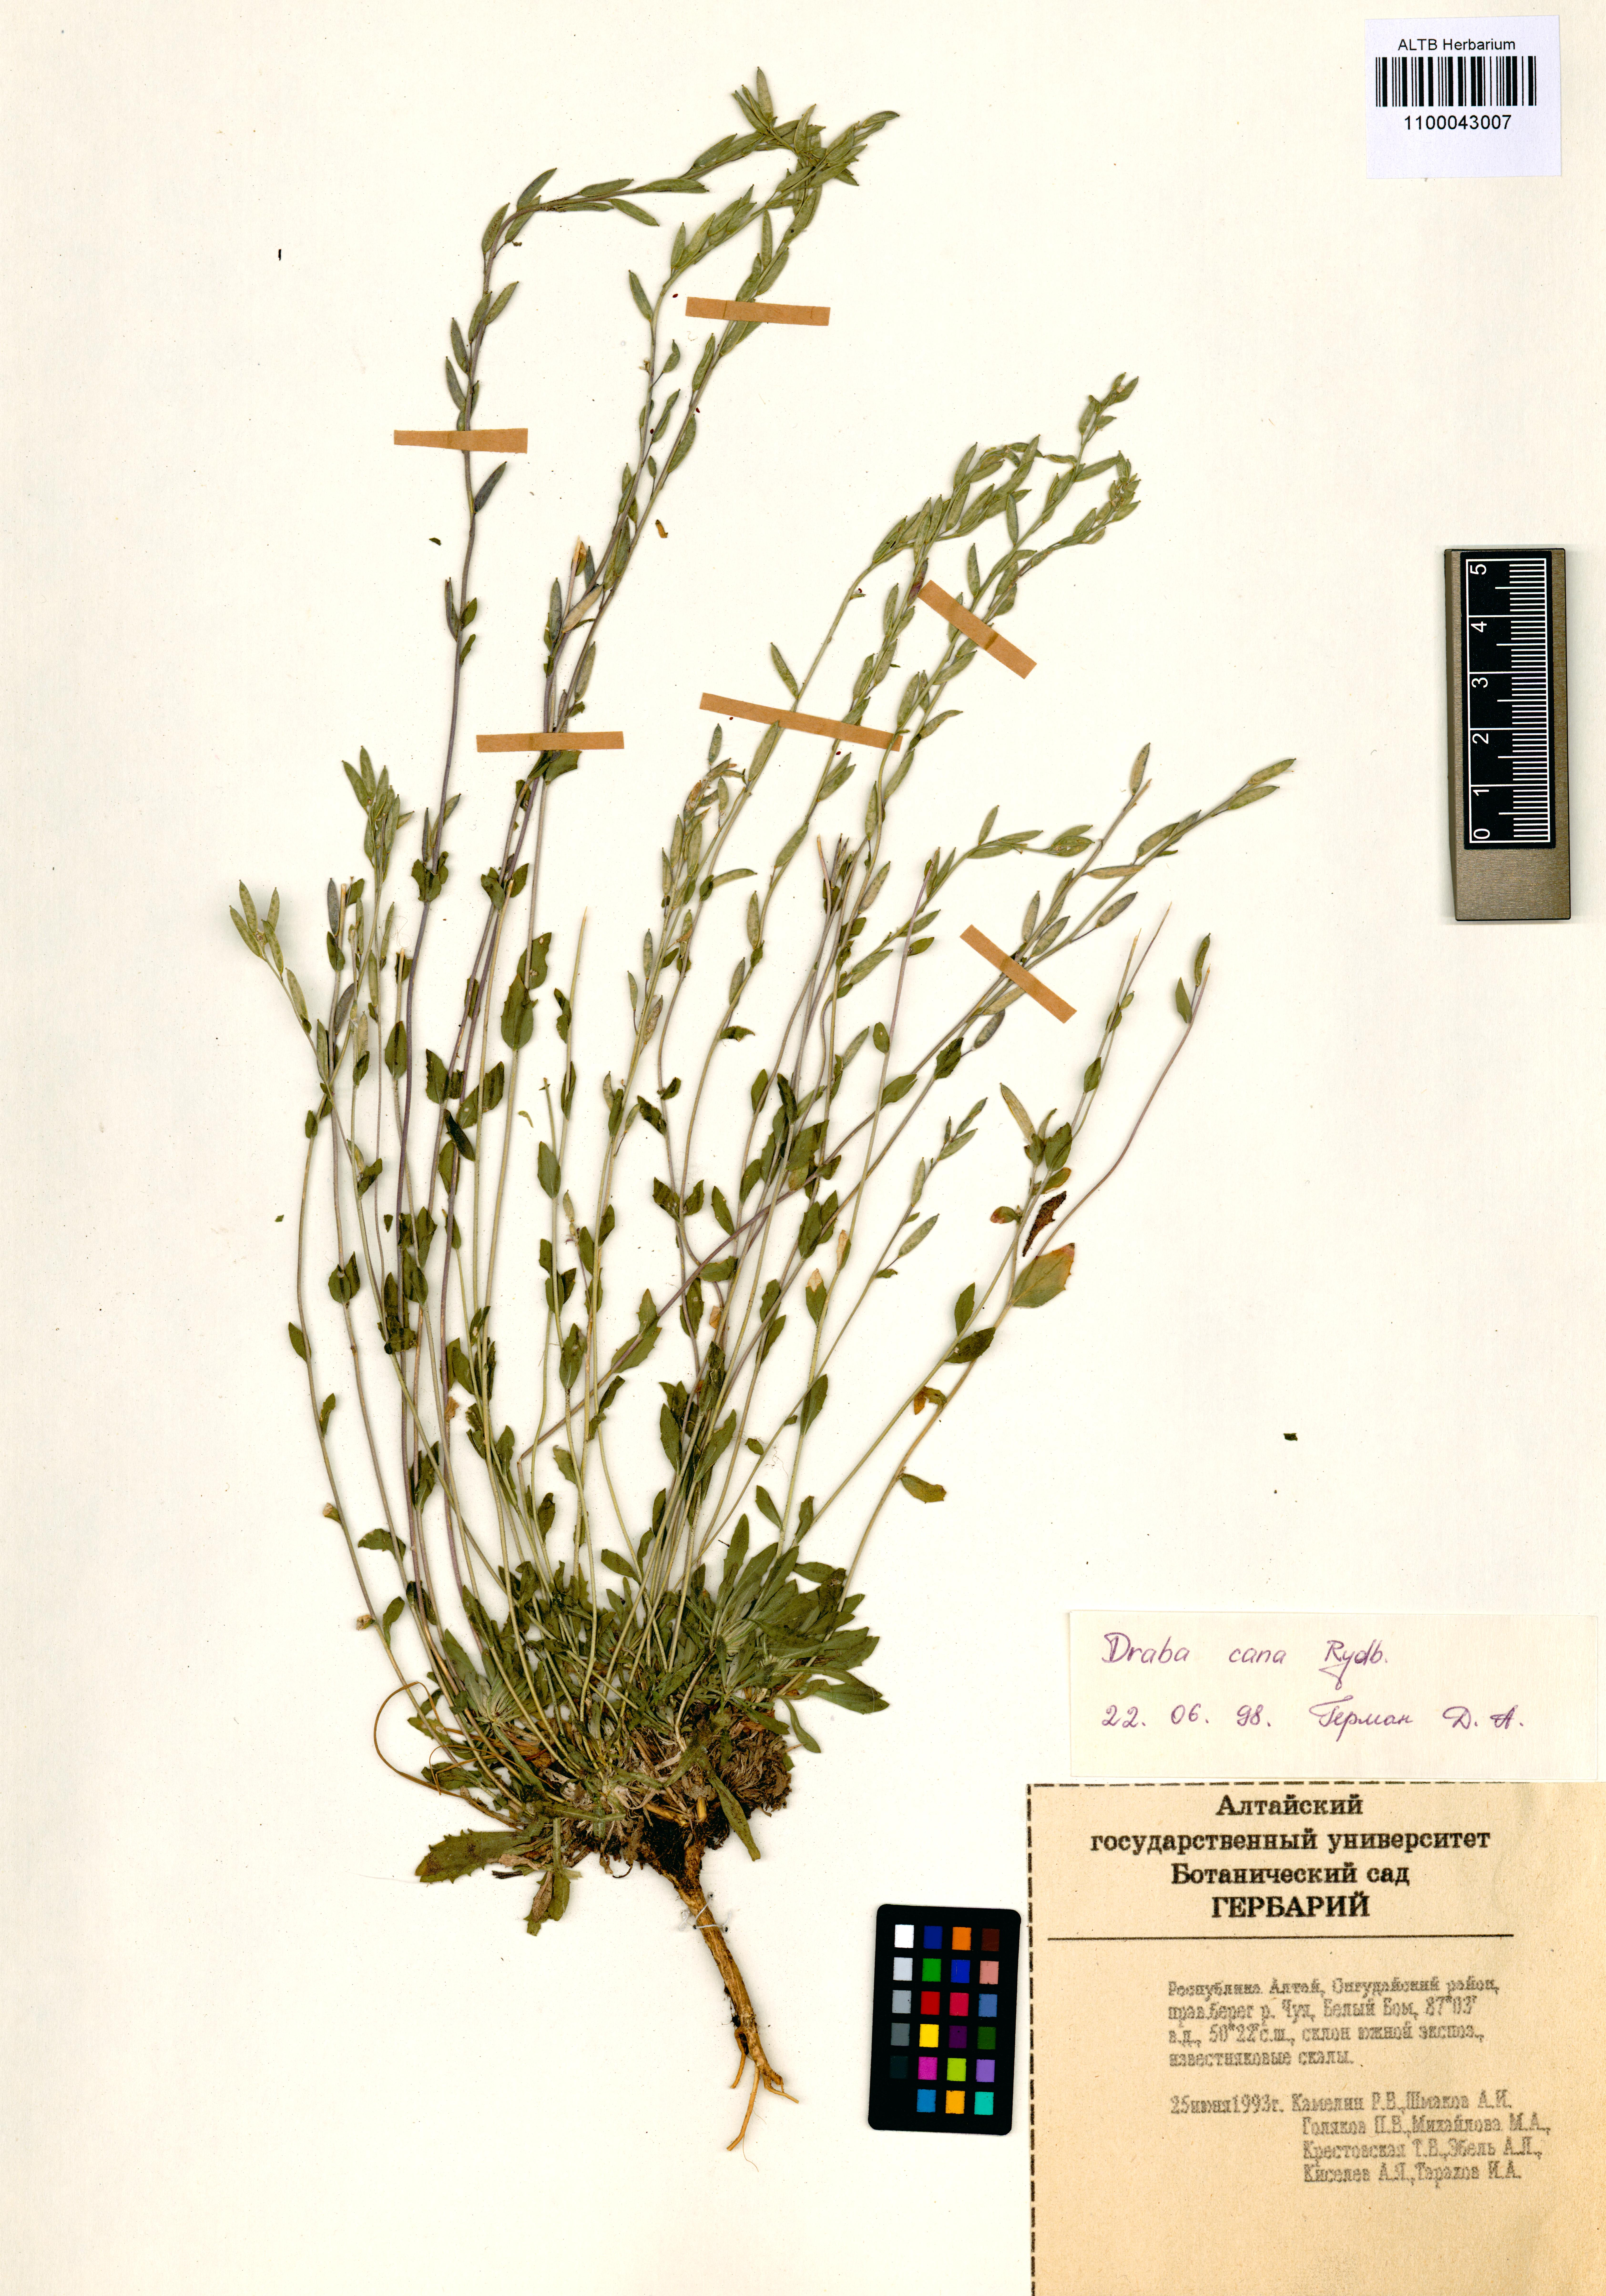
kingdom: Plantae
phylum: Tracheophyta
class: Magnoliopsida
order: Brassicales
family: Brassicaceae
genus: Draba
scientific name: Draba cana
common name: Hoary draba
